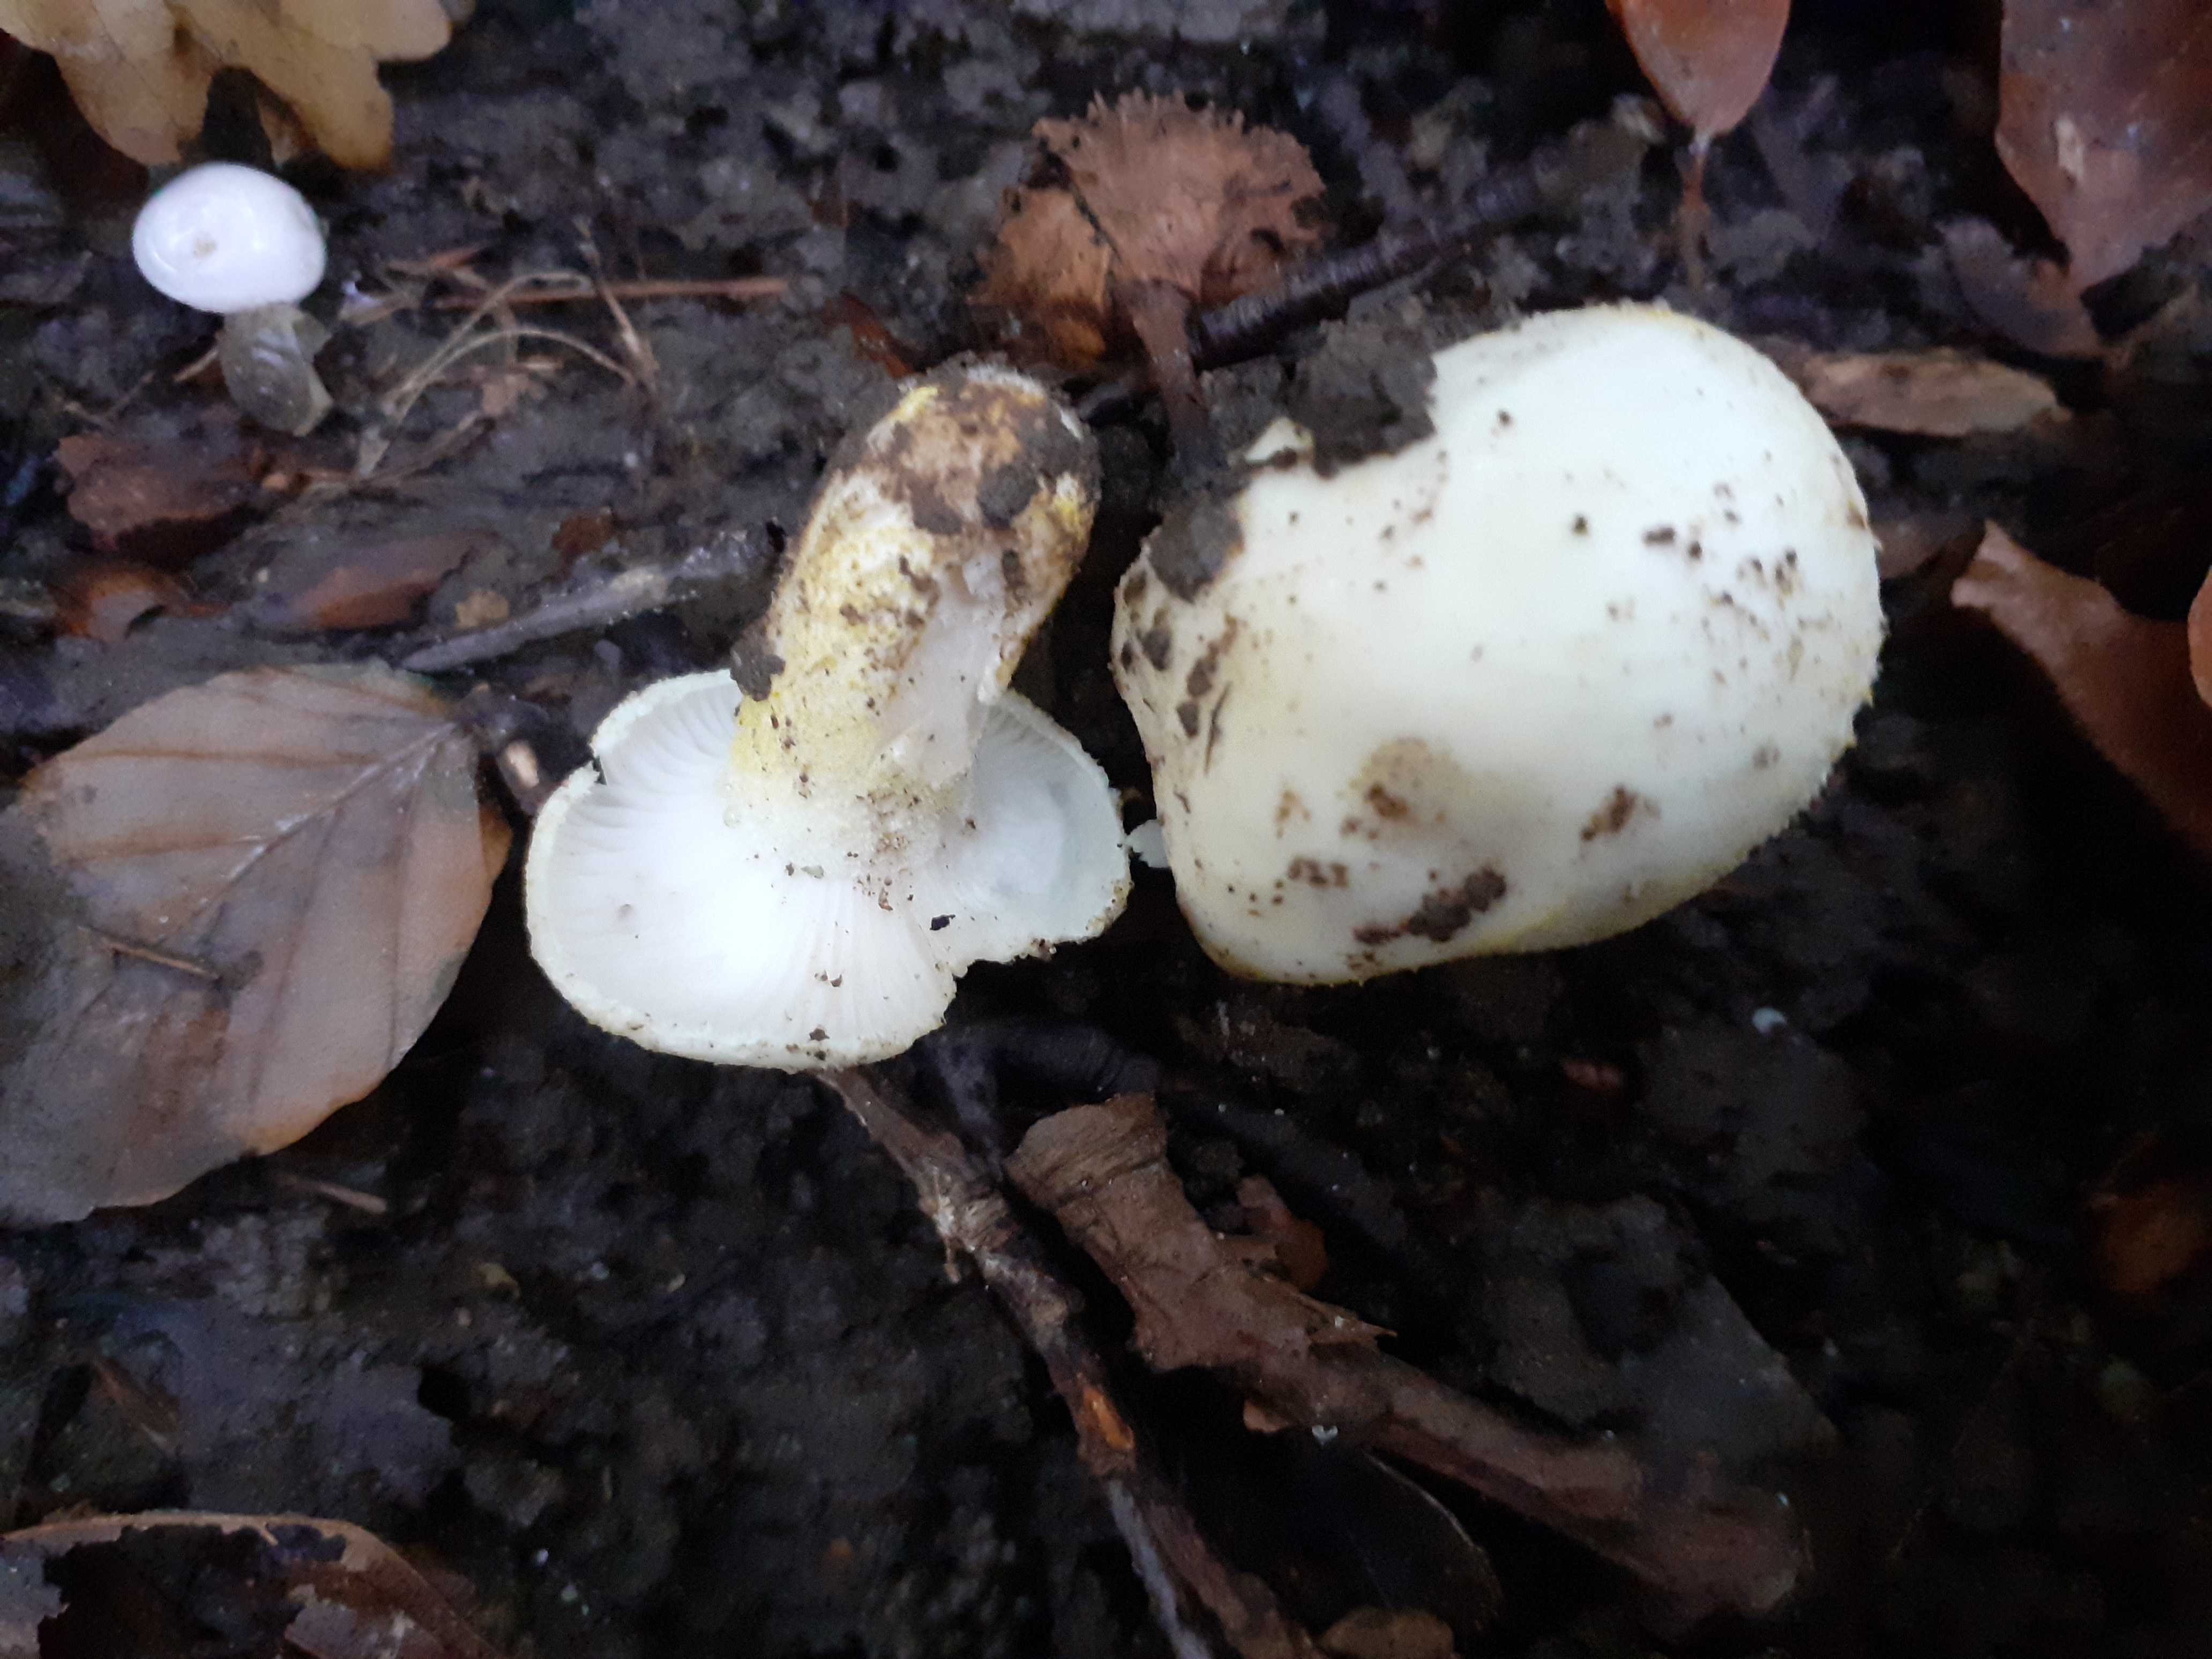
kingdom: Fungi
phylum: Basidiomycota
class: Agaricomycetes
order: Agaricales
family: Hygrophoraceae
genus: Hygrophorus
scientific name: Hygrophorus chrysodon
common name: gulfnugget sneglehat
